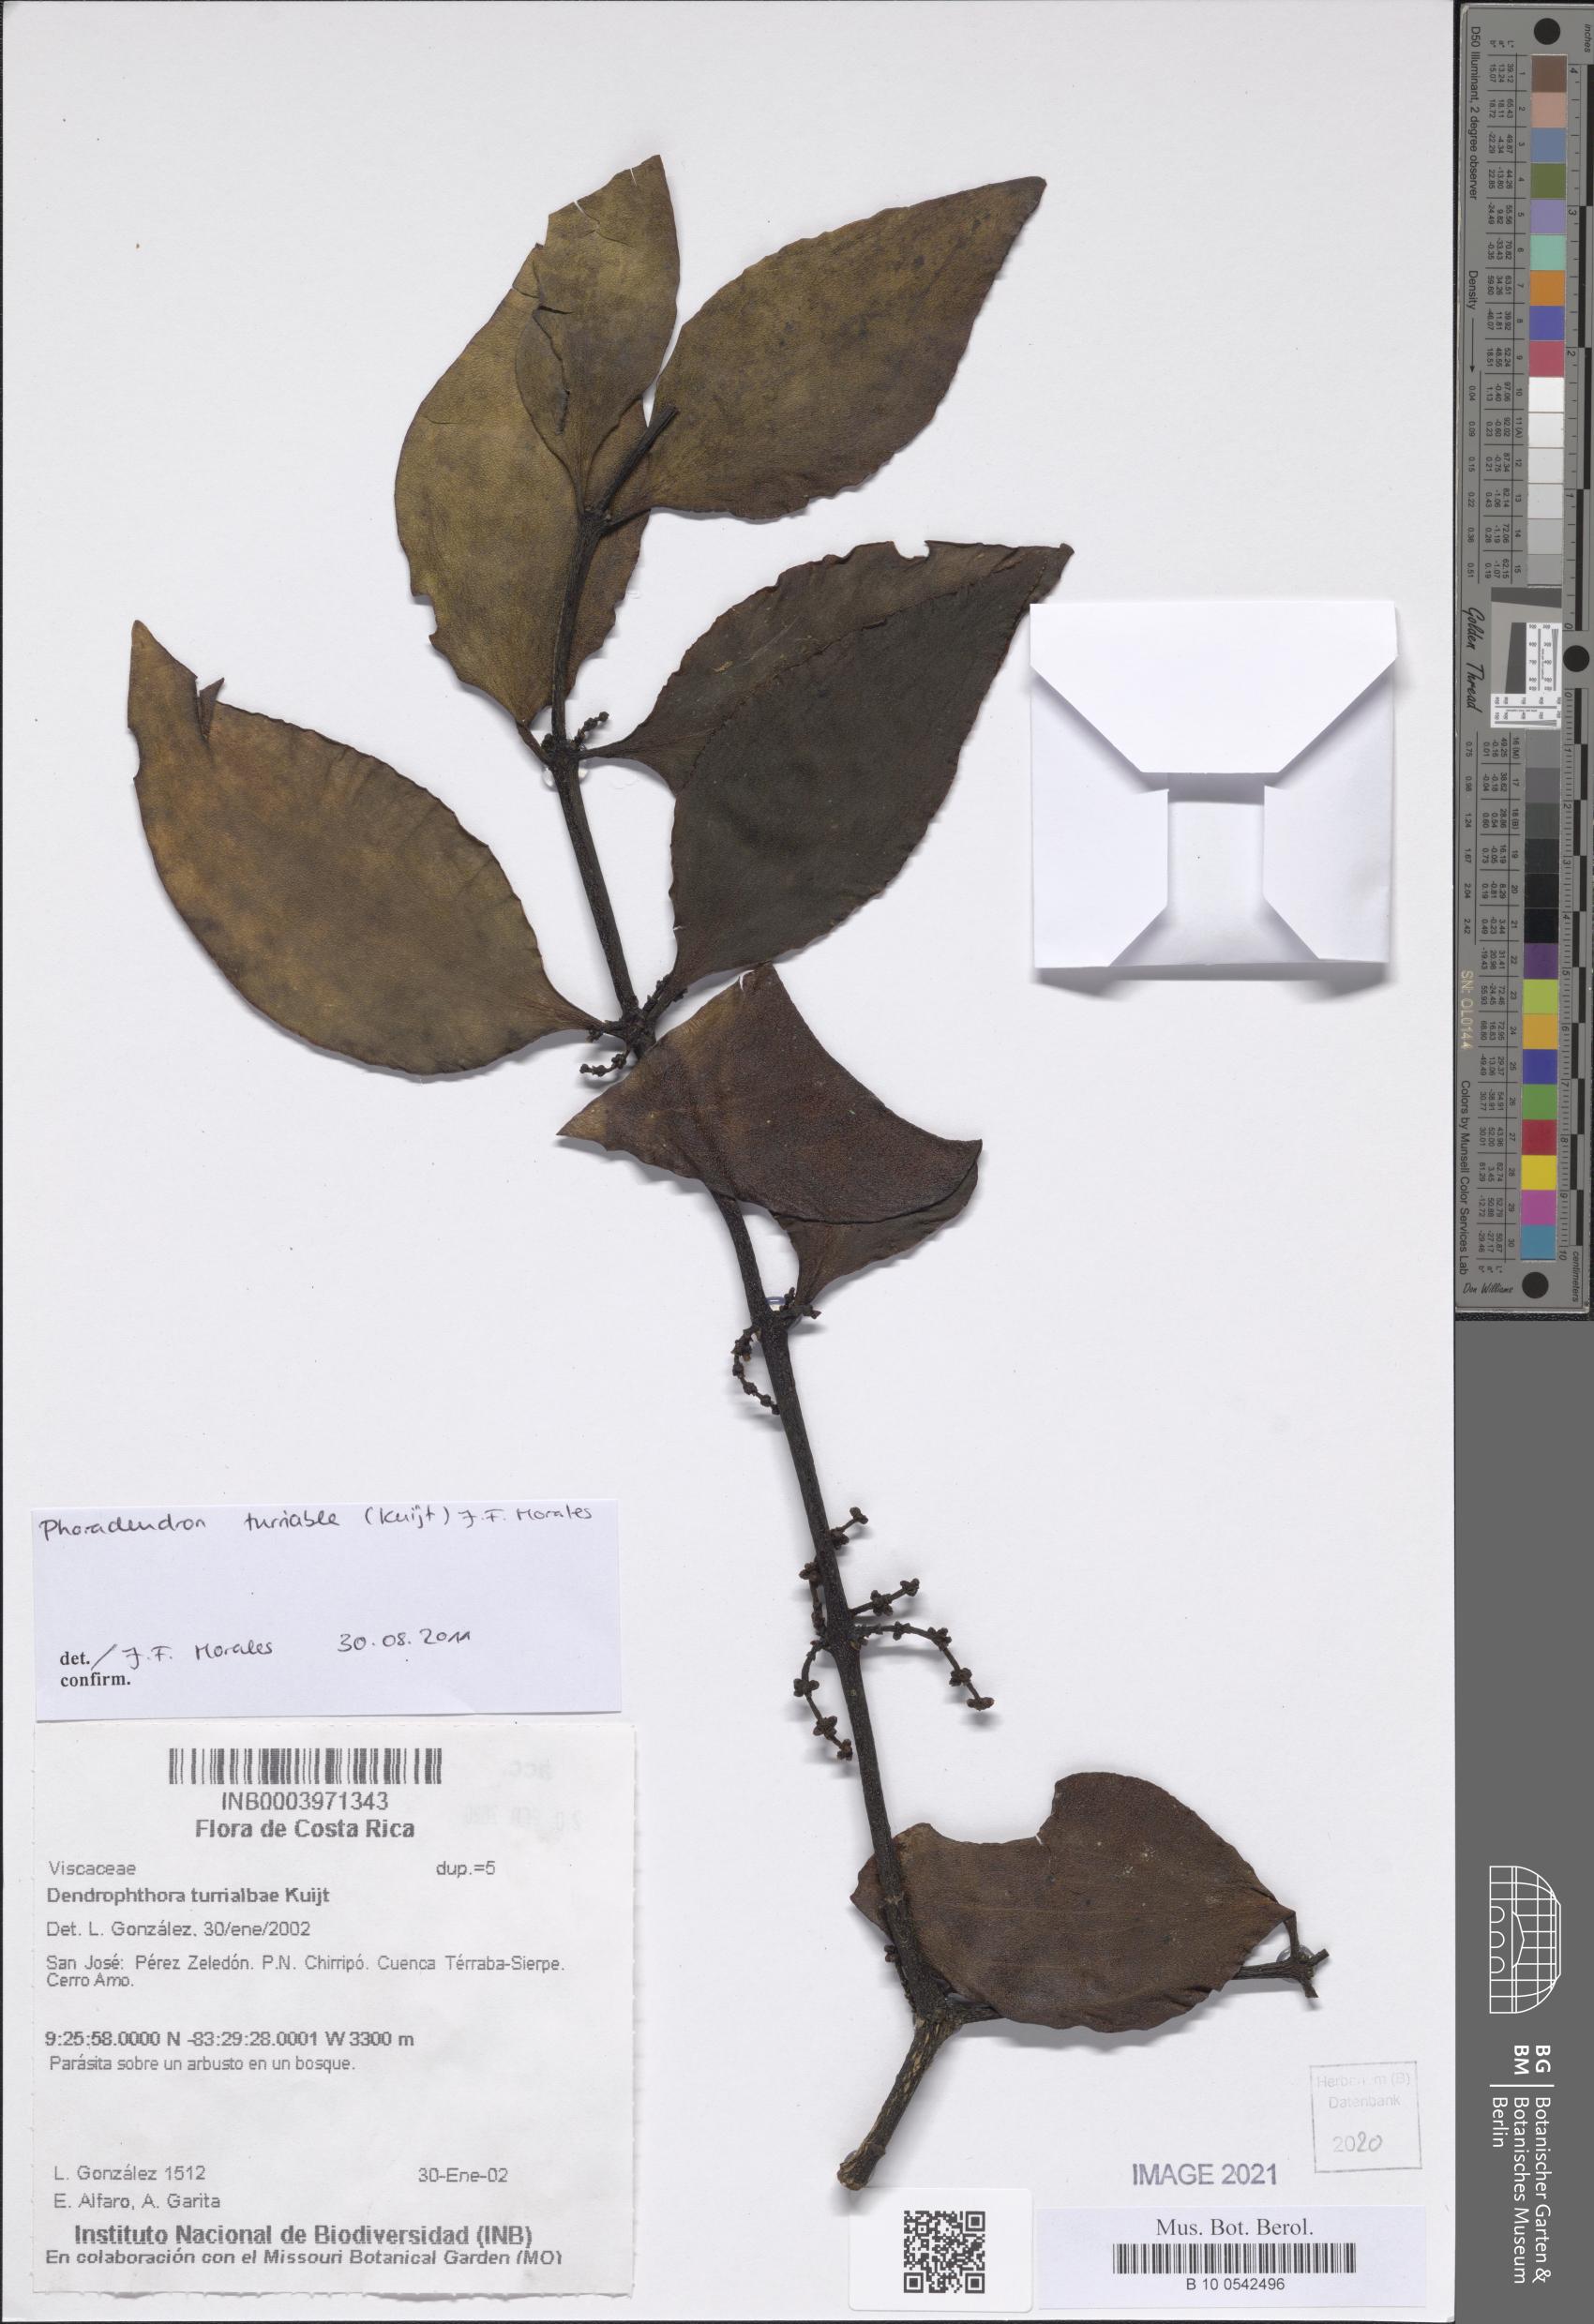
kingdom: Plantae
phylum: Tracheophyta
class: Magnoliopsida
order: Santalales
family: Viscaceae
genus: Phoradendron
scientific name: Phoradendron turrialbae
